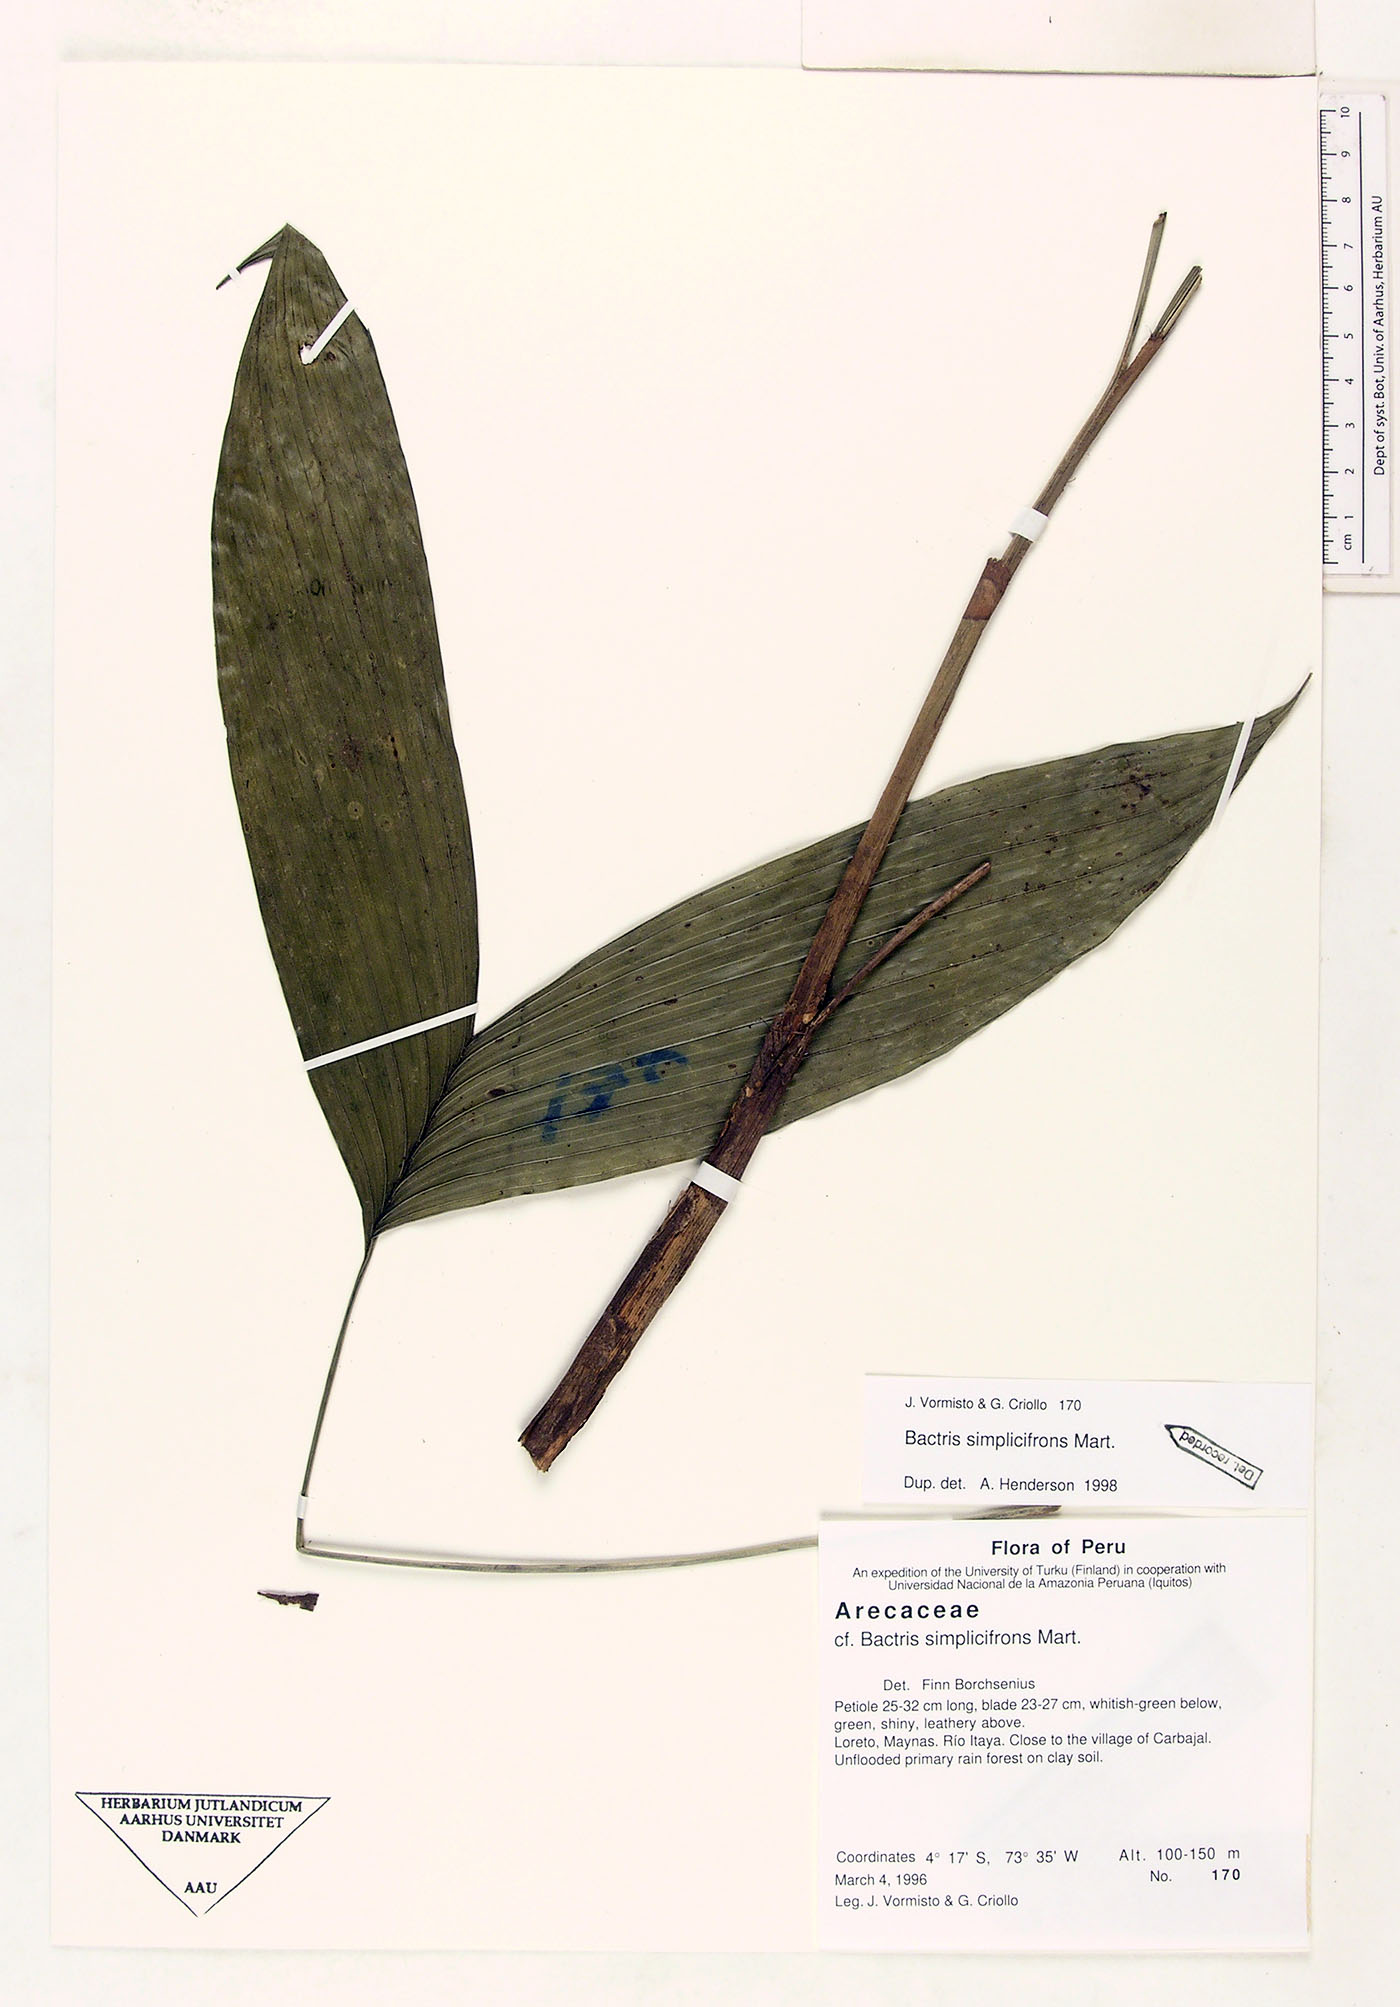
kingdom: Plantae
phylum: Tracheophyta
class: Liliopsida
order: Arecales
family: Arecaceae
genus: Bactris
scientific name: Bactris simplicifrons
